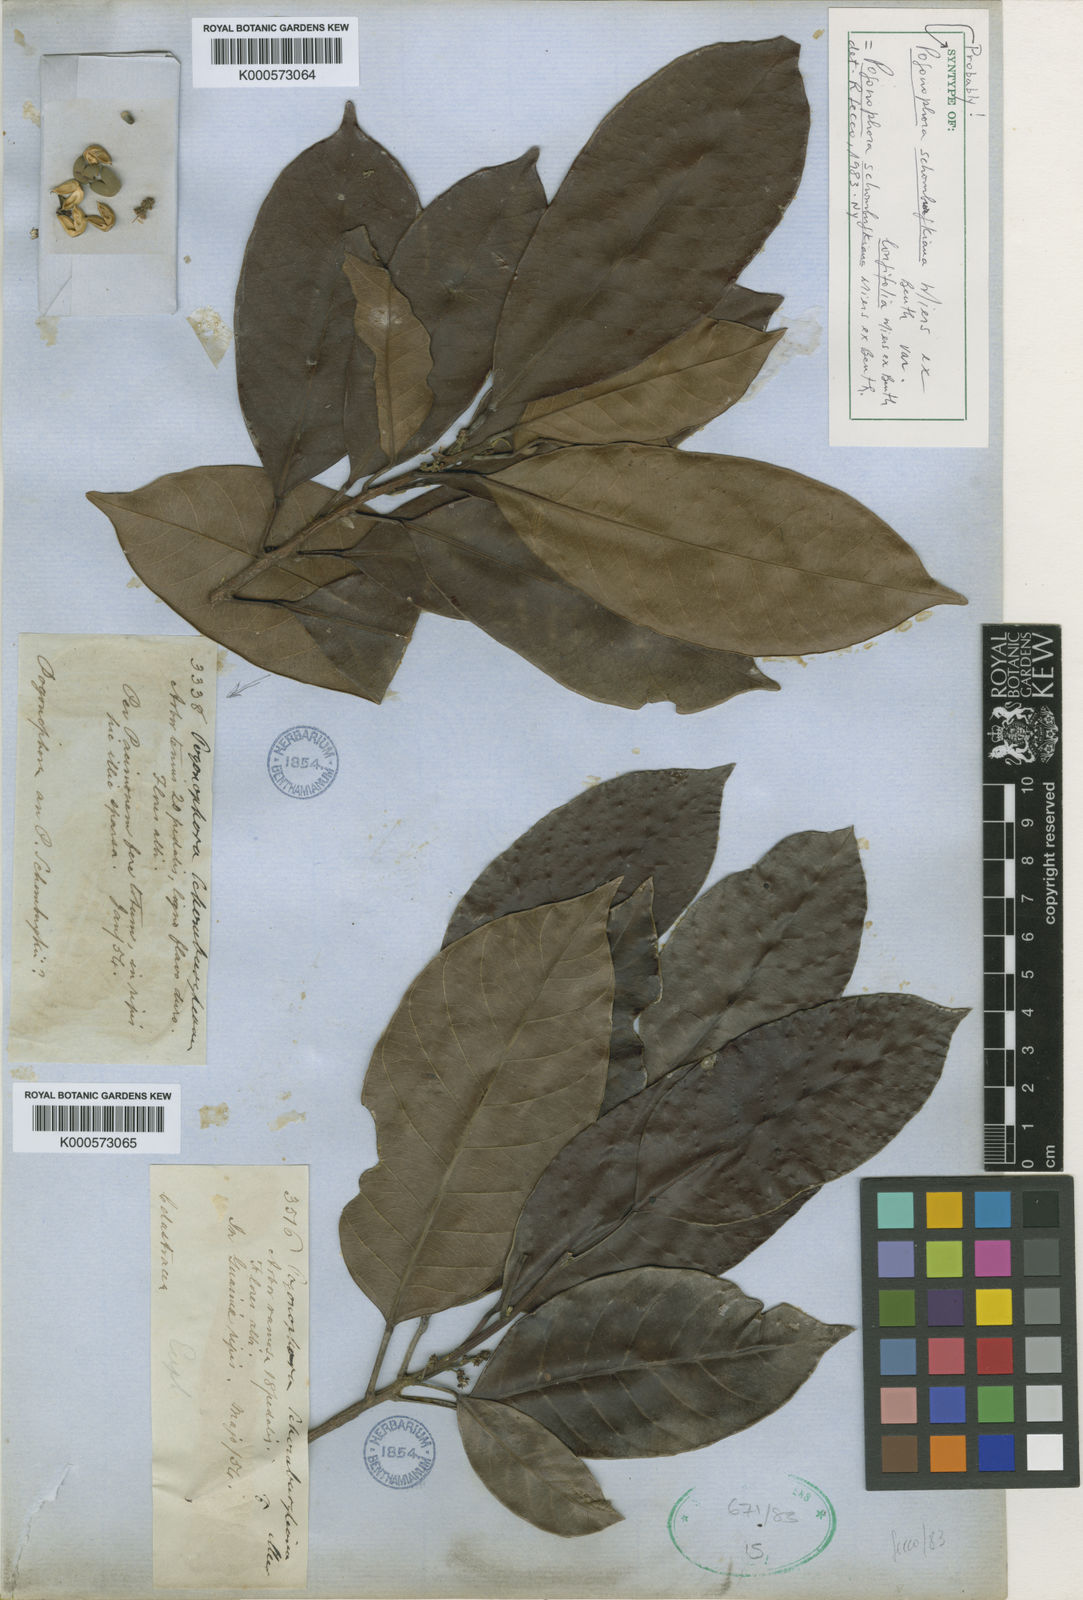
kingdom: Plantae
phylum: Tracheophyta
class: Magnoliopsida
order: Malpighiales
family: Peraceae
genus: Pogonophora
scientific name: Pogonophora schomburgkiana
